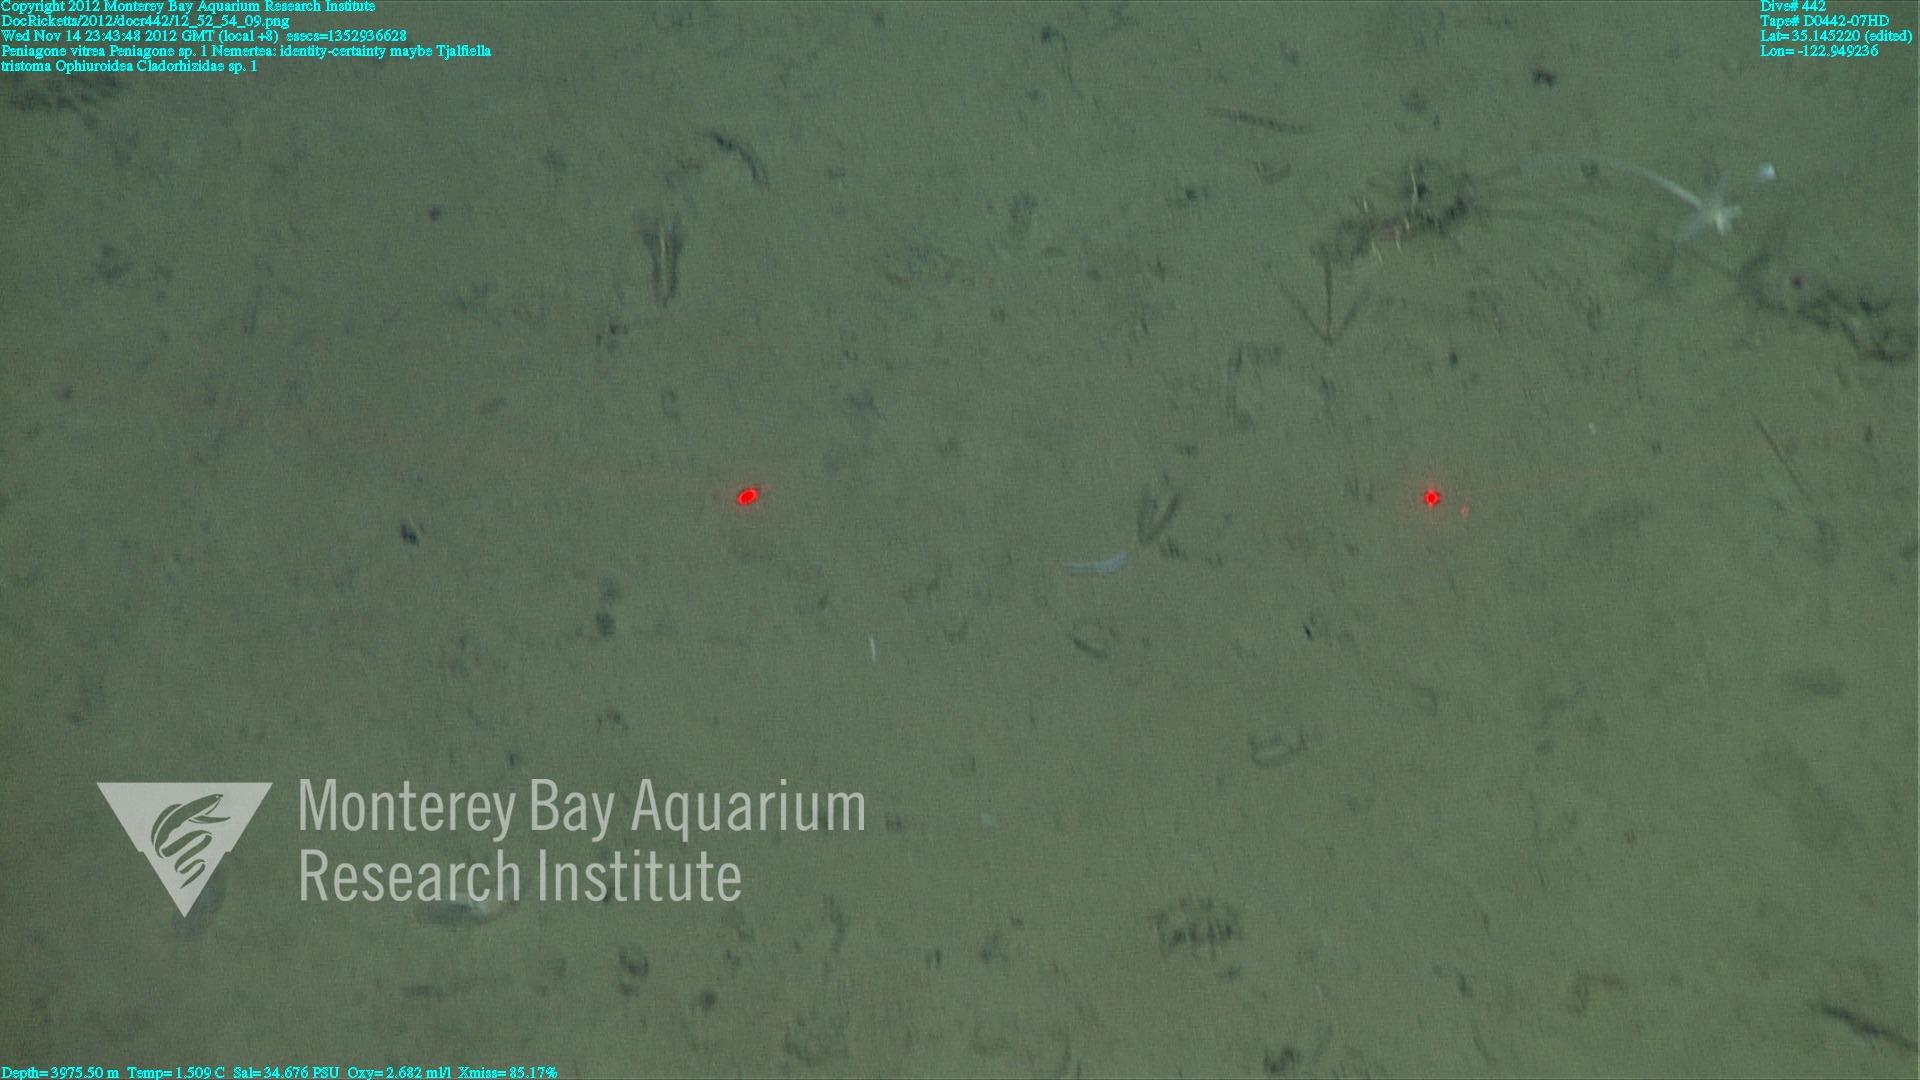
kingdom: Animalia
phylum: Porifera
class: Demospongiae
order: Poecilosclerida
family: Cladorhizidae
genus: Cladorhiza
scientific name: Cladorhiza
